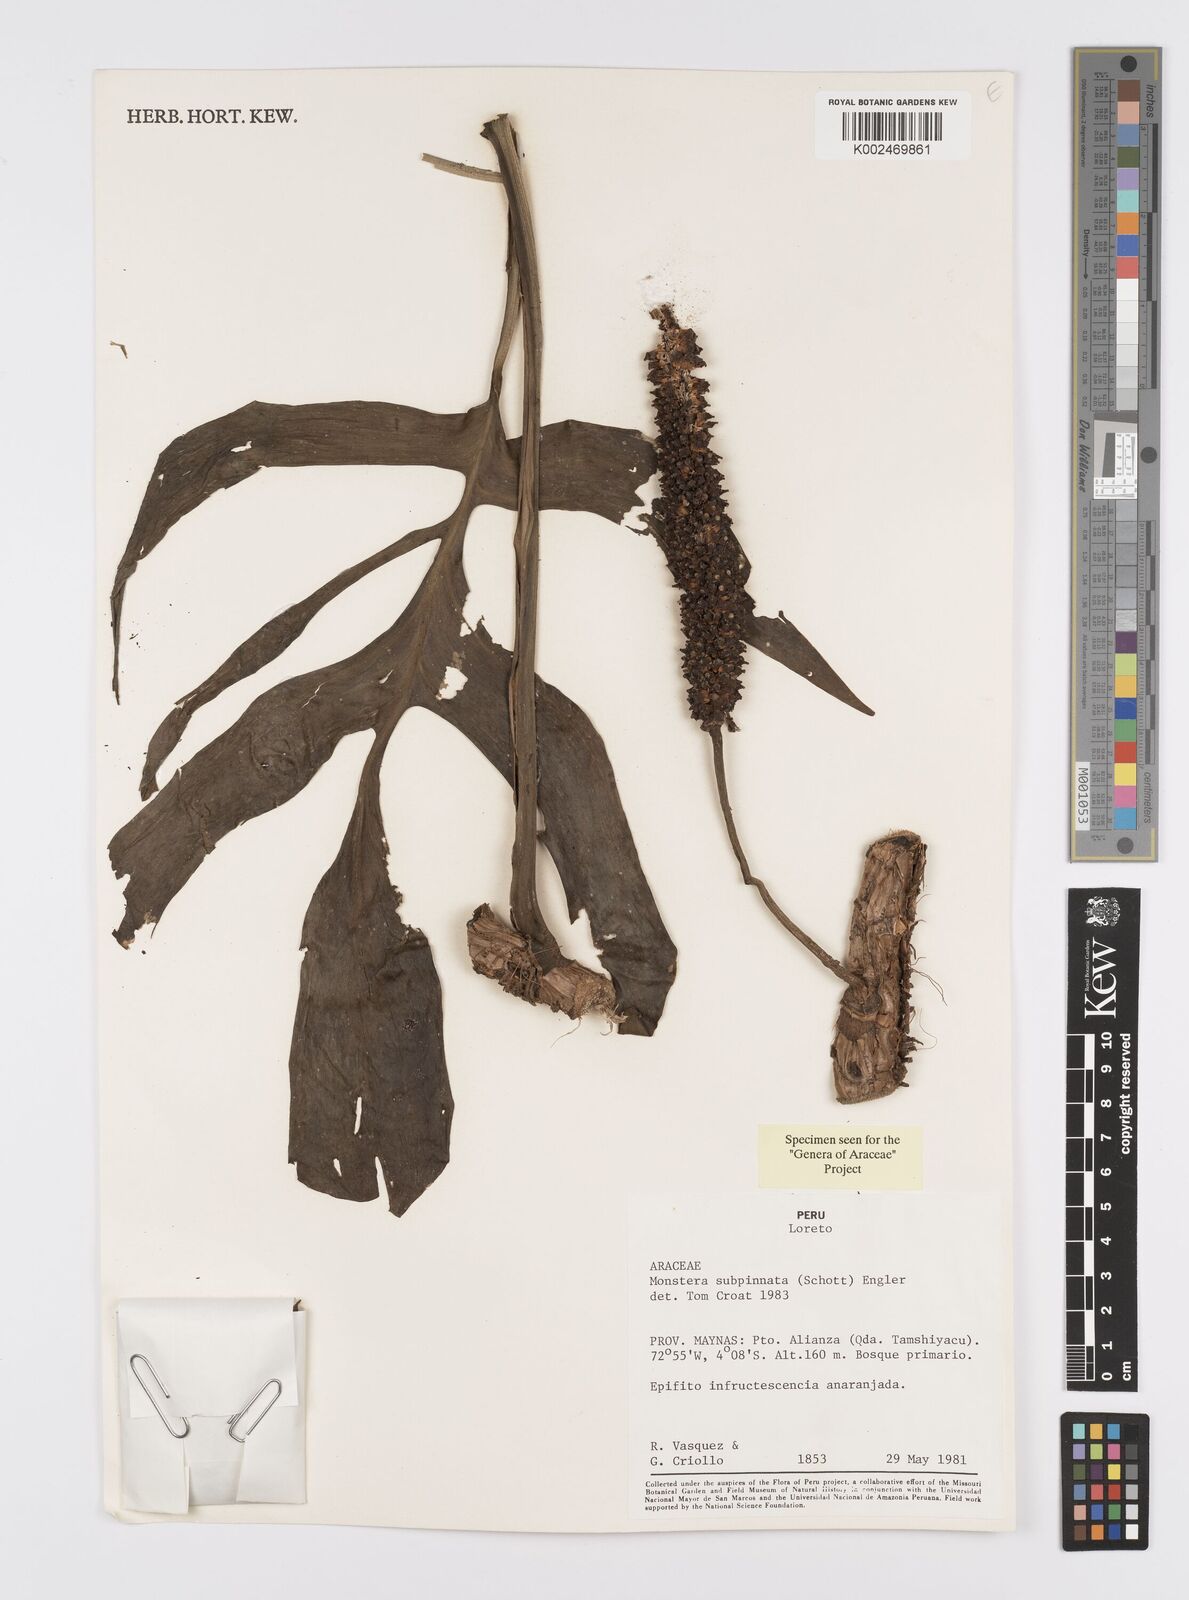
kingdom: Plantae
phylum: Tracheophyta
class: Liliopsida
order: Alismatales
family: Araceae
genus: Monstera
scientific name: Monstera subpinnata
